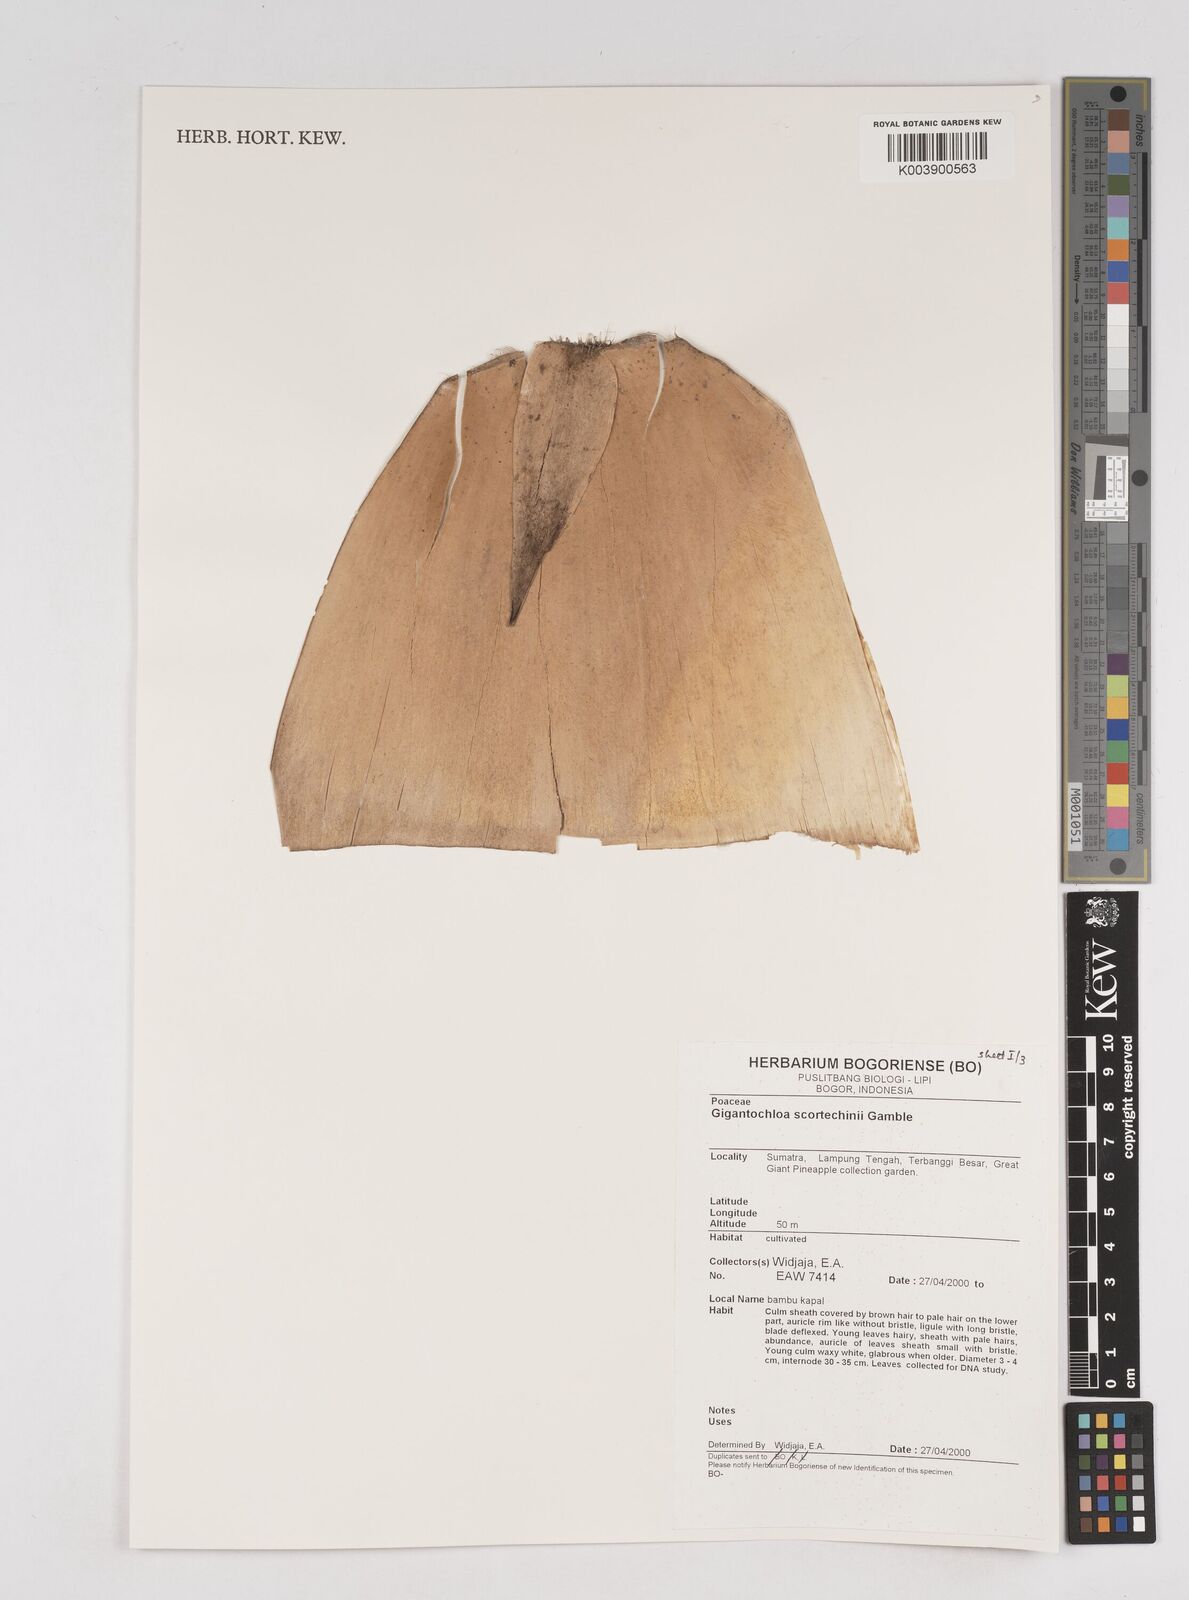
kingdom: Plantae
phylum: Tracheophyta
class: Liliopsida
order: Poales
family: Poaceae
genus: Gigantochloa
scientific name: Gigantochloa scortechinii
